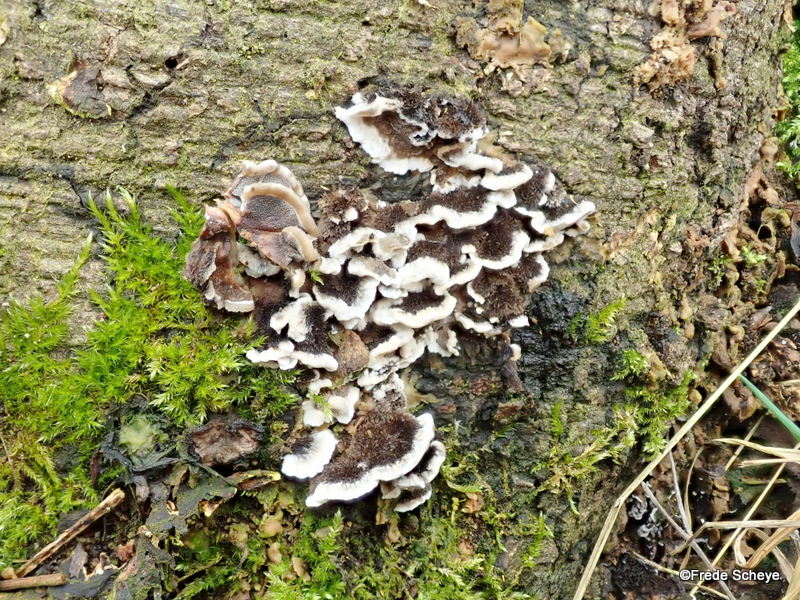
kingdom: Fungi
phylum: Basidiomycota
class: Agaricomycetes
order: Polyporales
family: Phanerochaetaceae
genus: Bjerkandera
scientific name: Bjerkandera adusta
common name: sveden sodporesvamp
